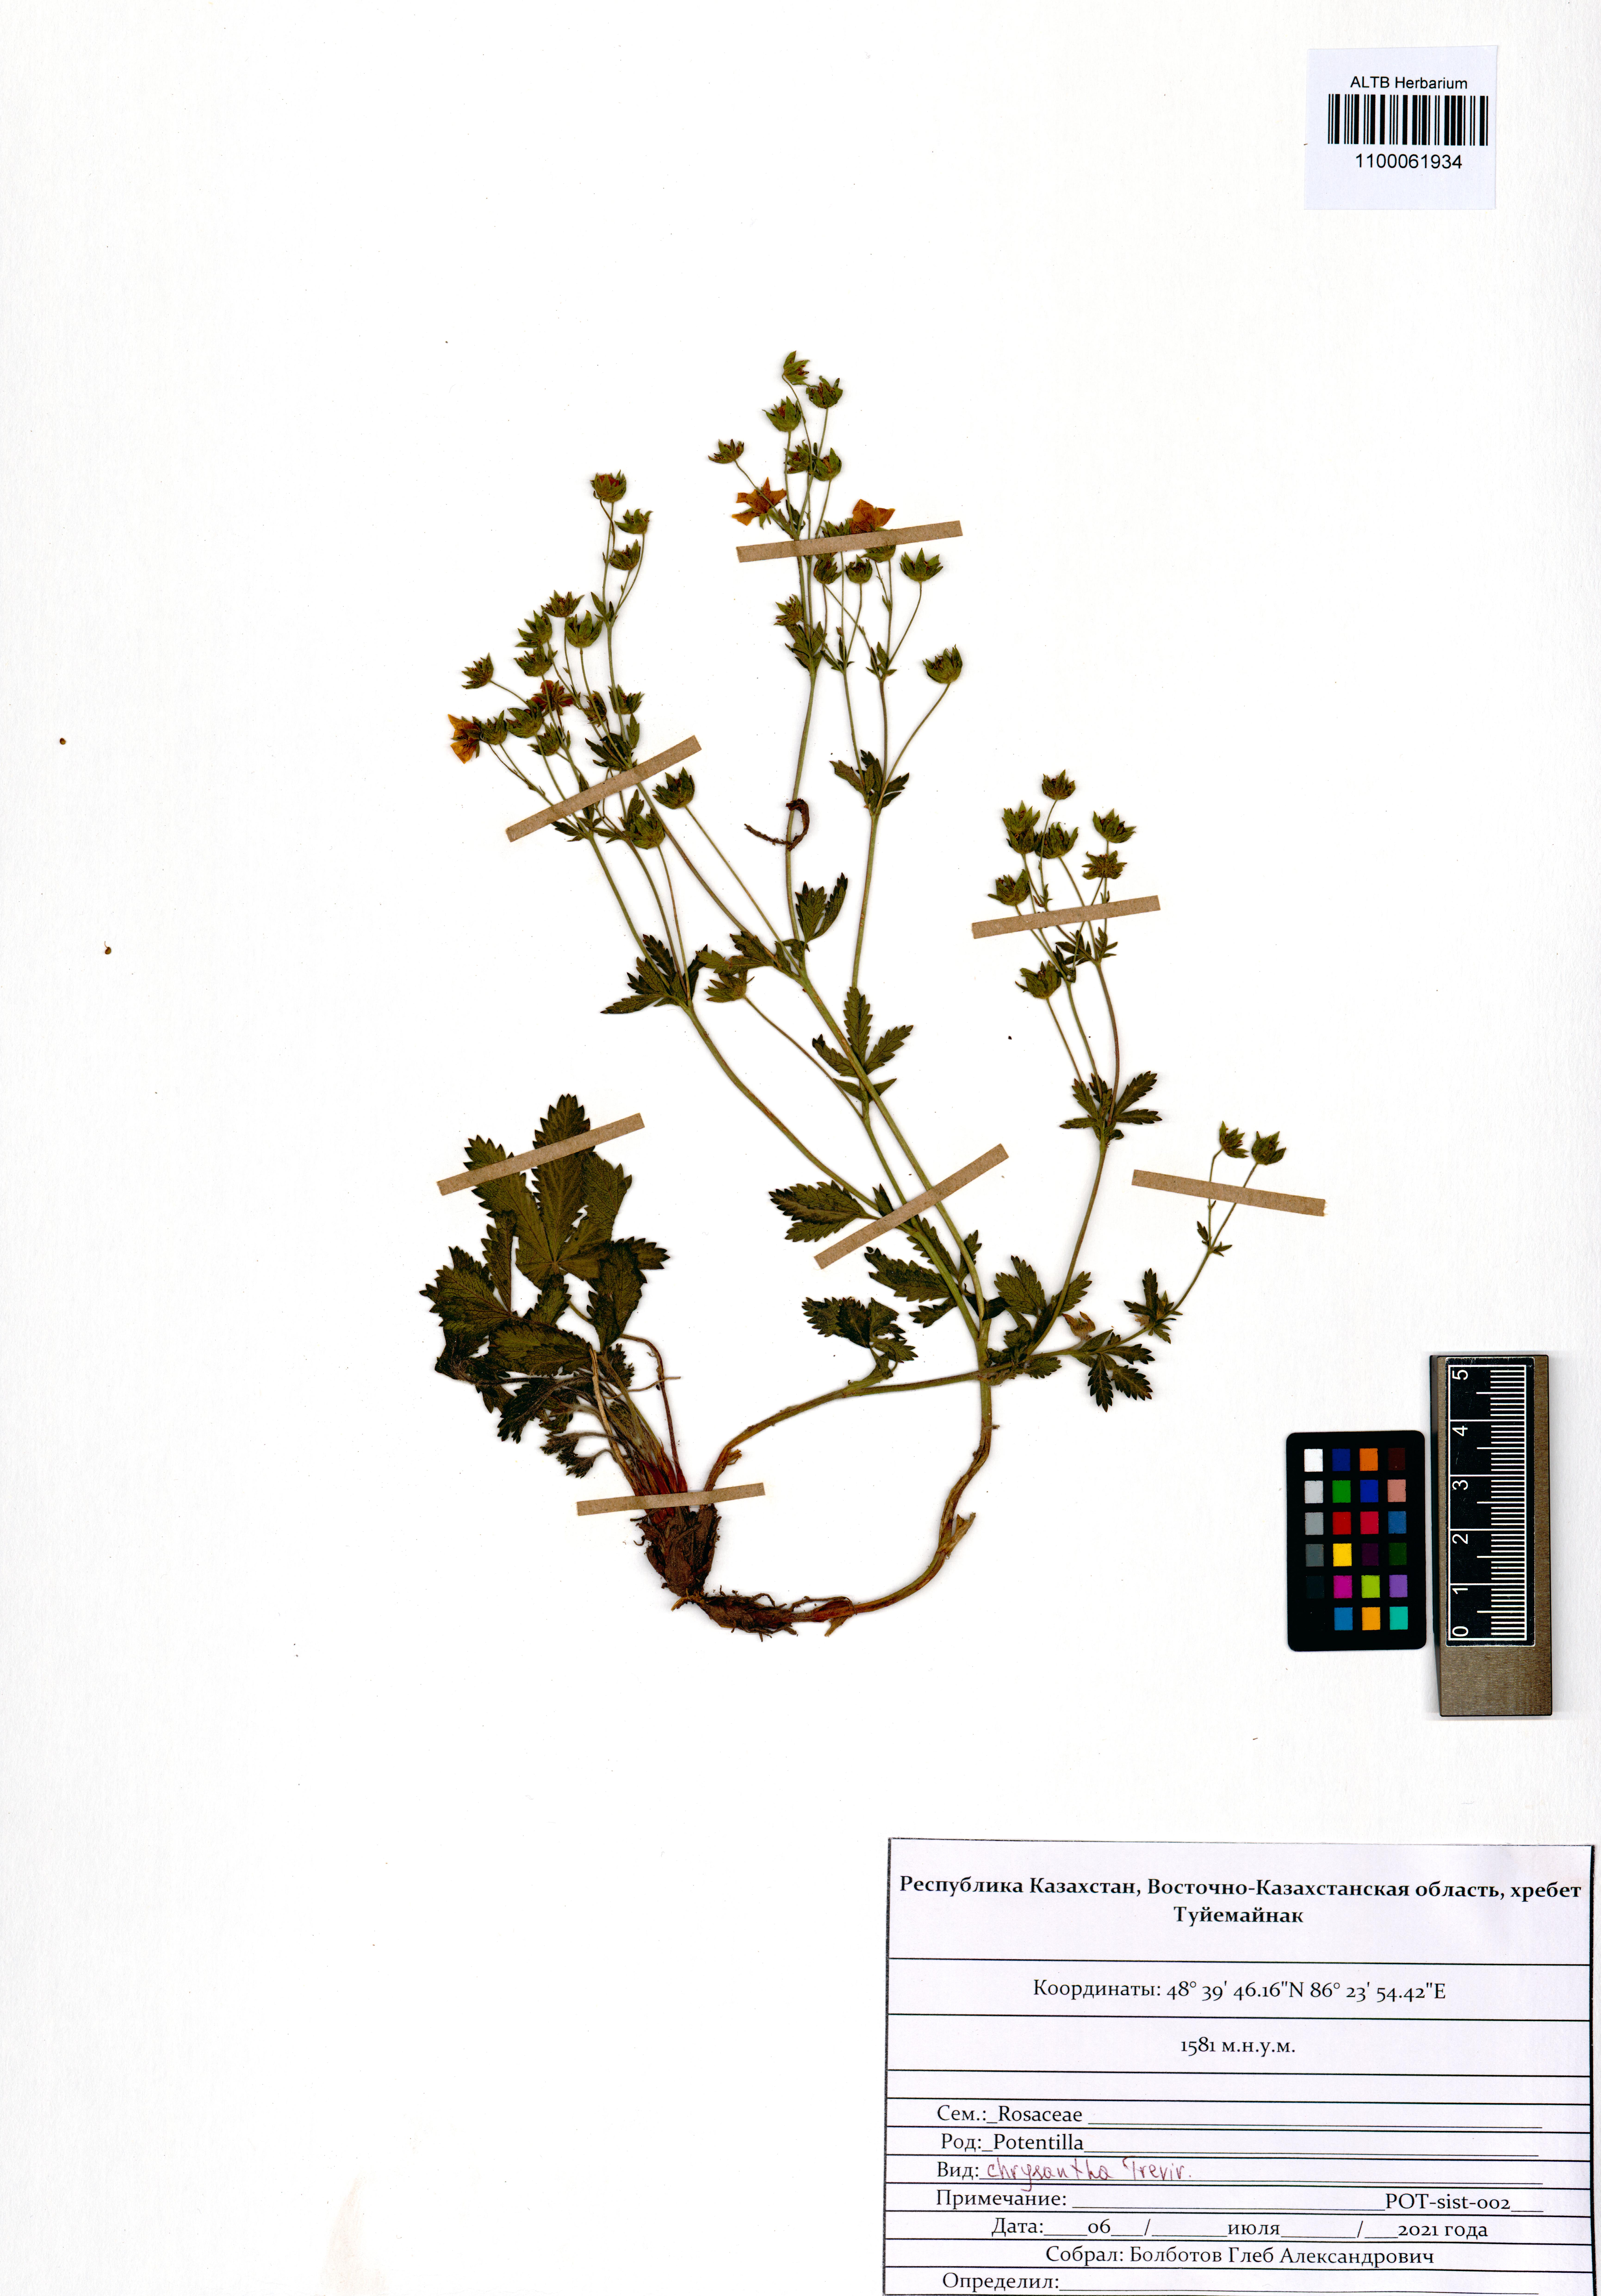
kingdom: Plantae
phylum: Tracheophyta
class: Magnoliopsida
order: Rosales
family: Rosaceae
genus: Potentilla
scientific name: Potentilla chrysantha
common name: Thuringian cinquefoil
